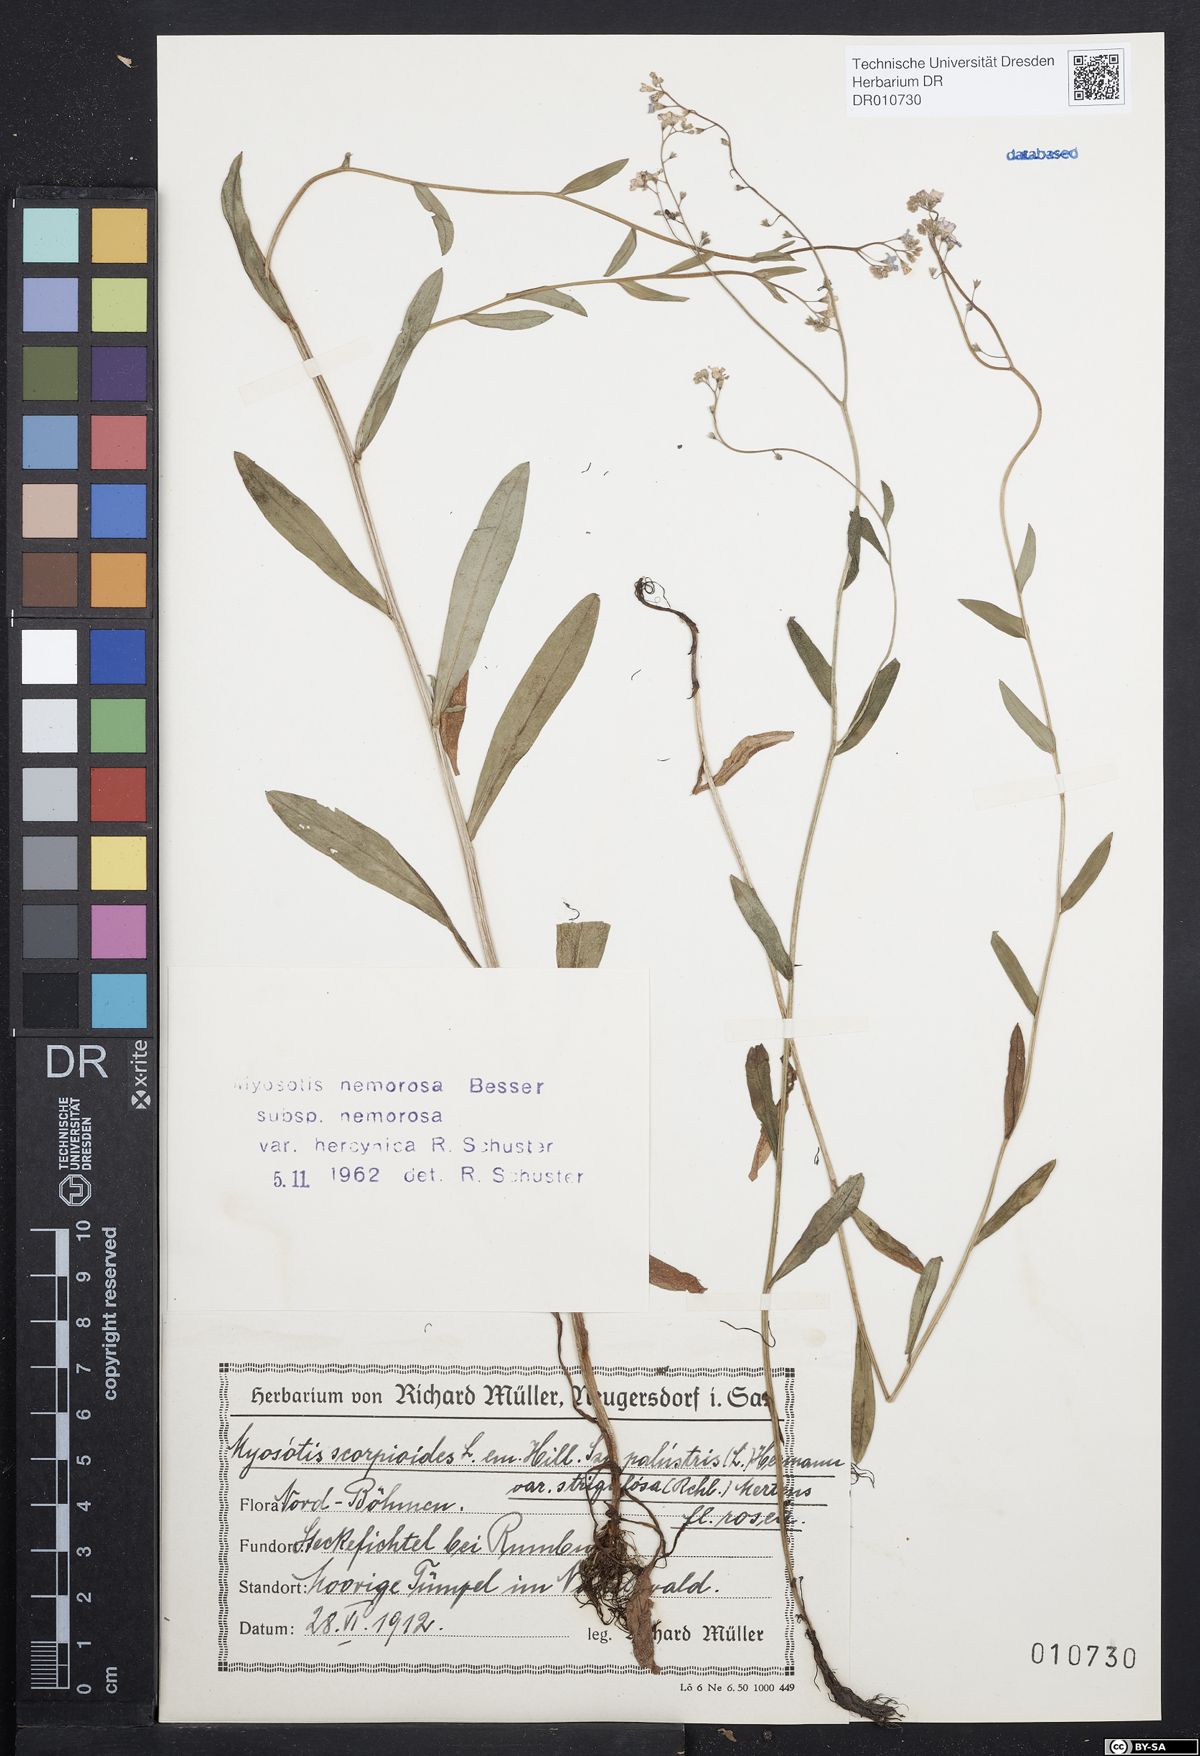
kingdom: Plantae
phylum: Tracheophyta
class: Magnoliopsida
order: Boraginales
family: Boraginaceae
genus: Myosotis
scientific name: Myosotis nemorosa
